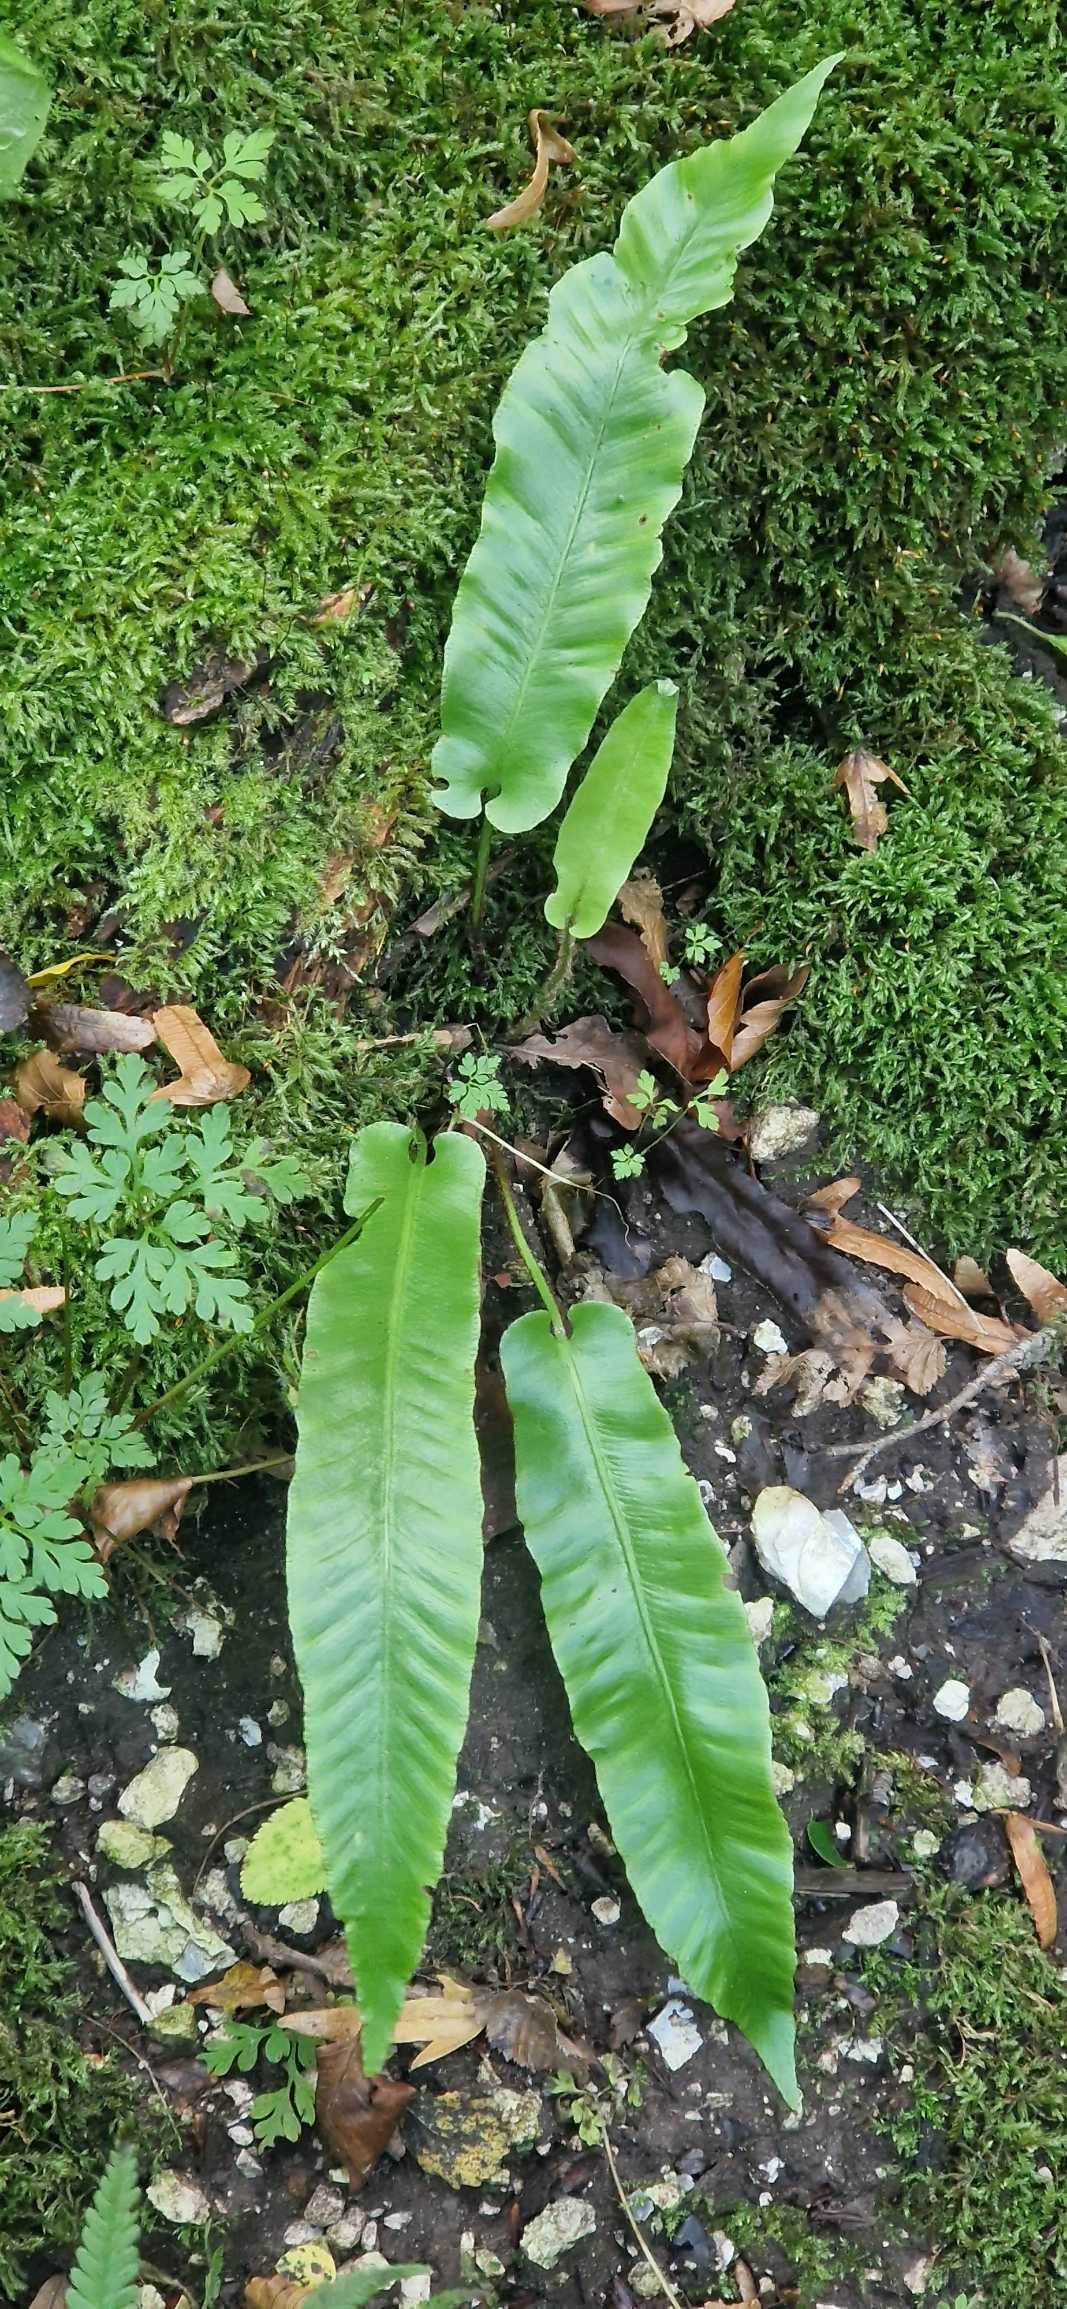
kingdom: Plantae
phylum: Tracheophyta
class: Polypodiopsida
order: Polypodiales
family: Aspleniaceae
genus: Asplenium
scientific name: Asplenium scolopendrium
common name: Hjortetunge
